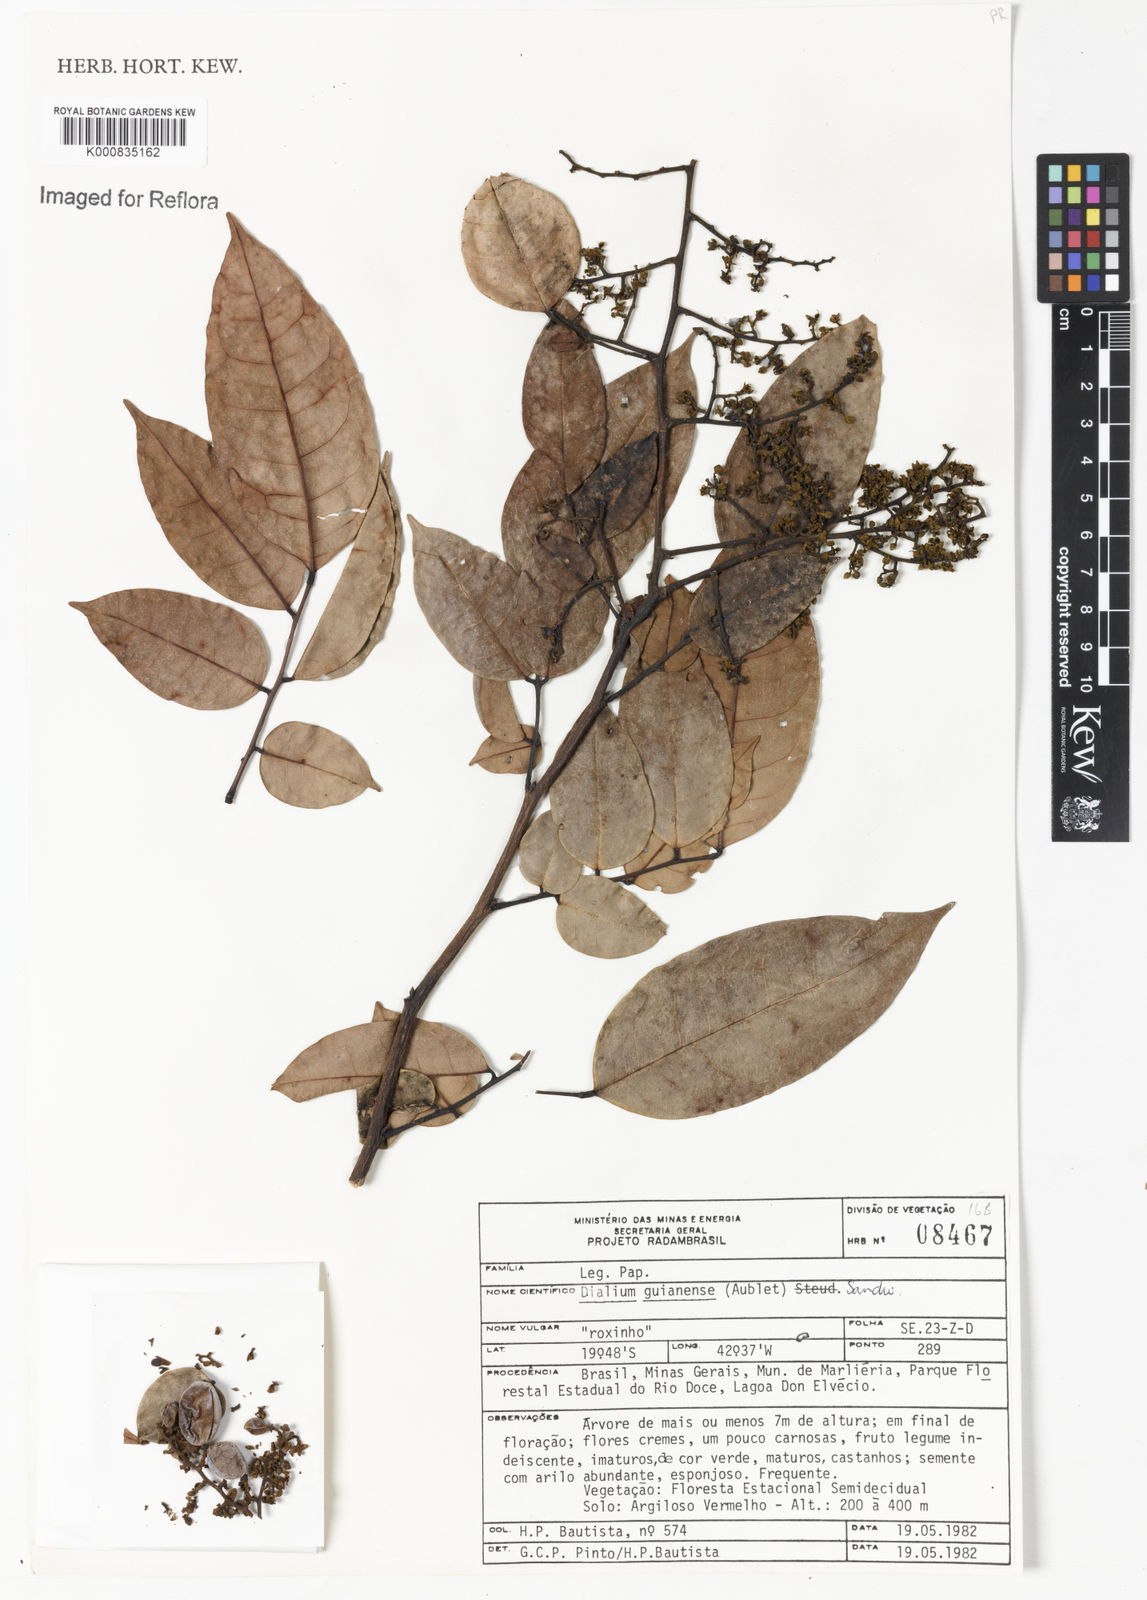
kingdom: Plantae
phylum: Tracheophyta
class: Magnoliopsida
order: Fabales
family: Fabaceae
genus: Dialium
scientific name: Dialium guianense
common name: Ironwood
